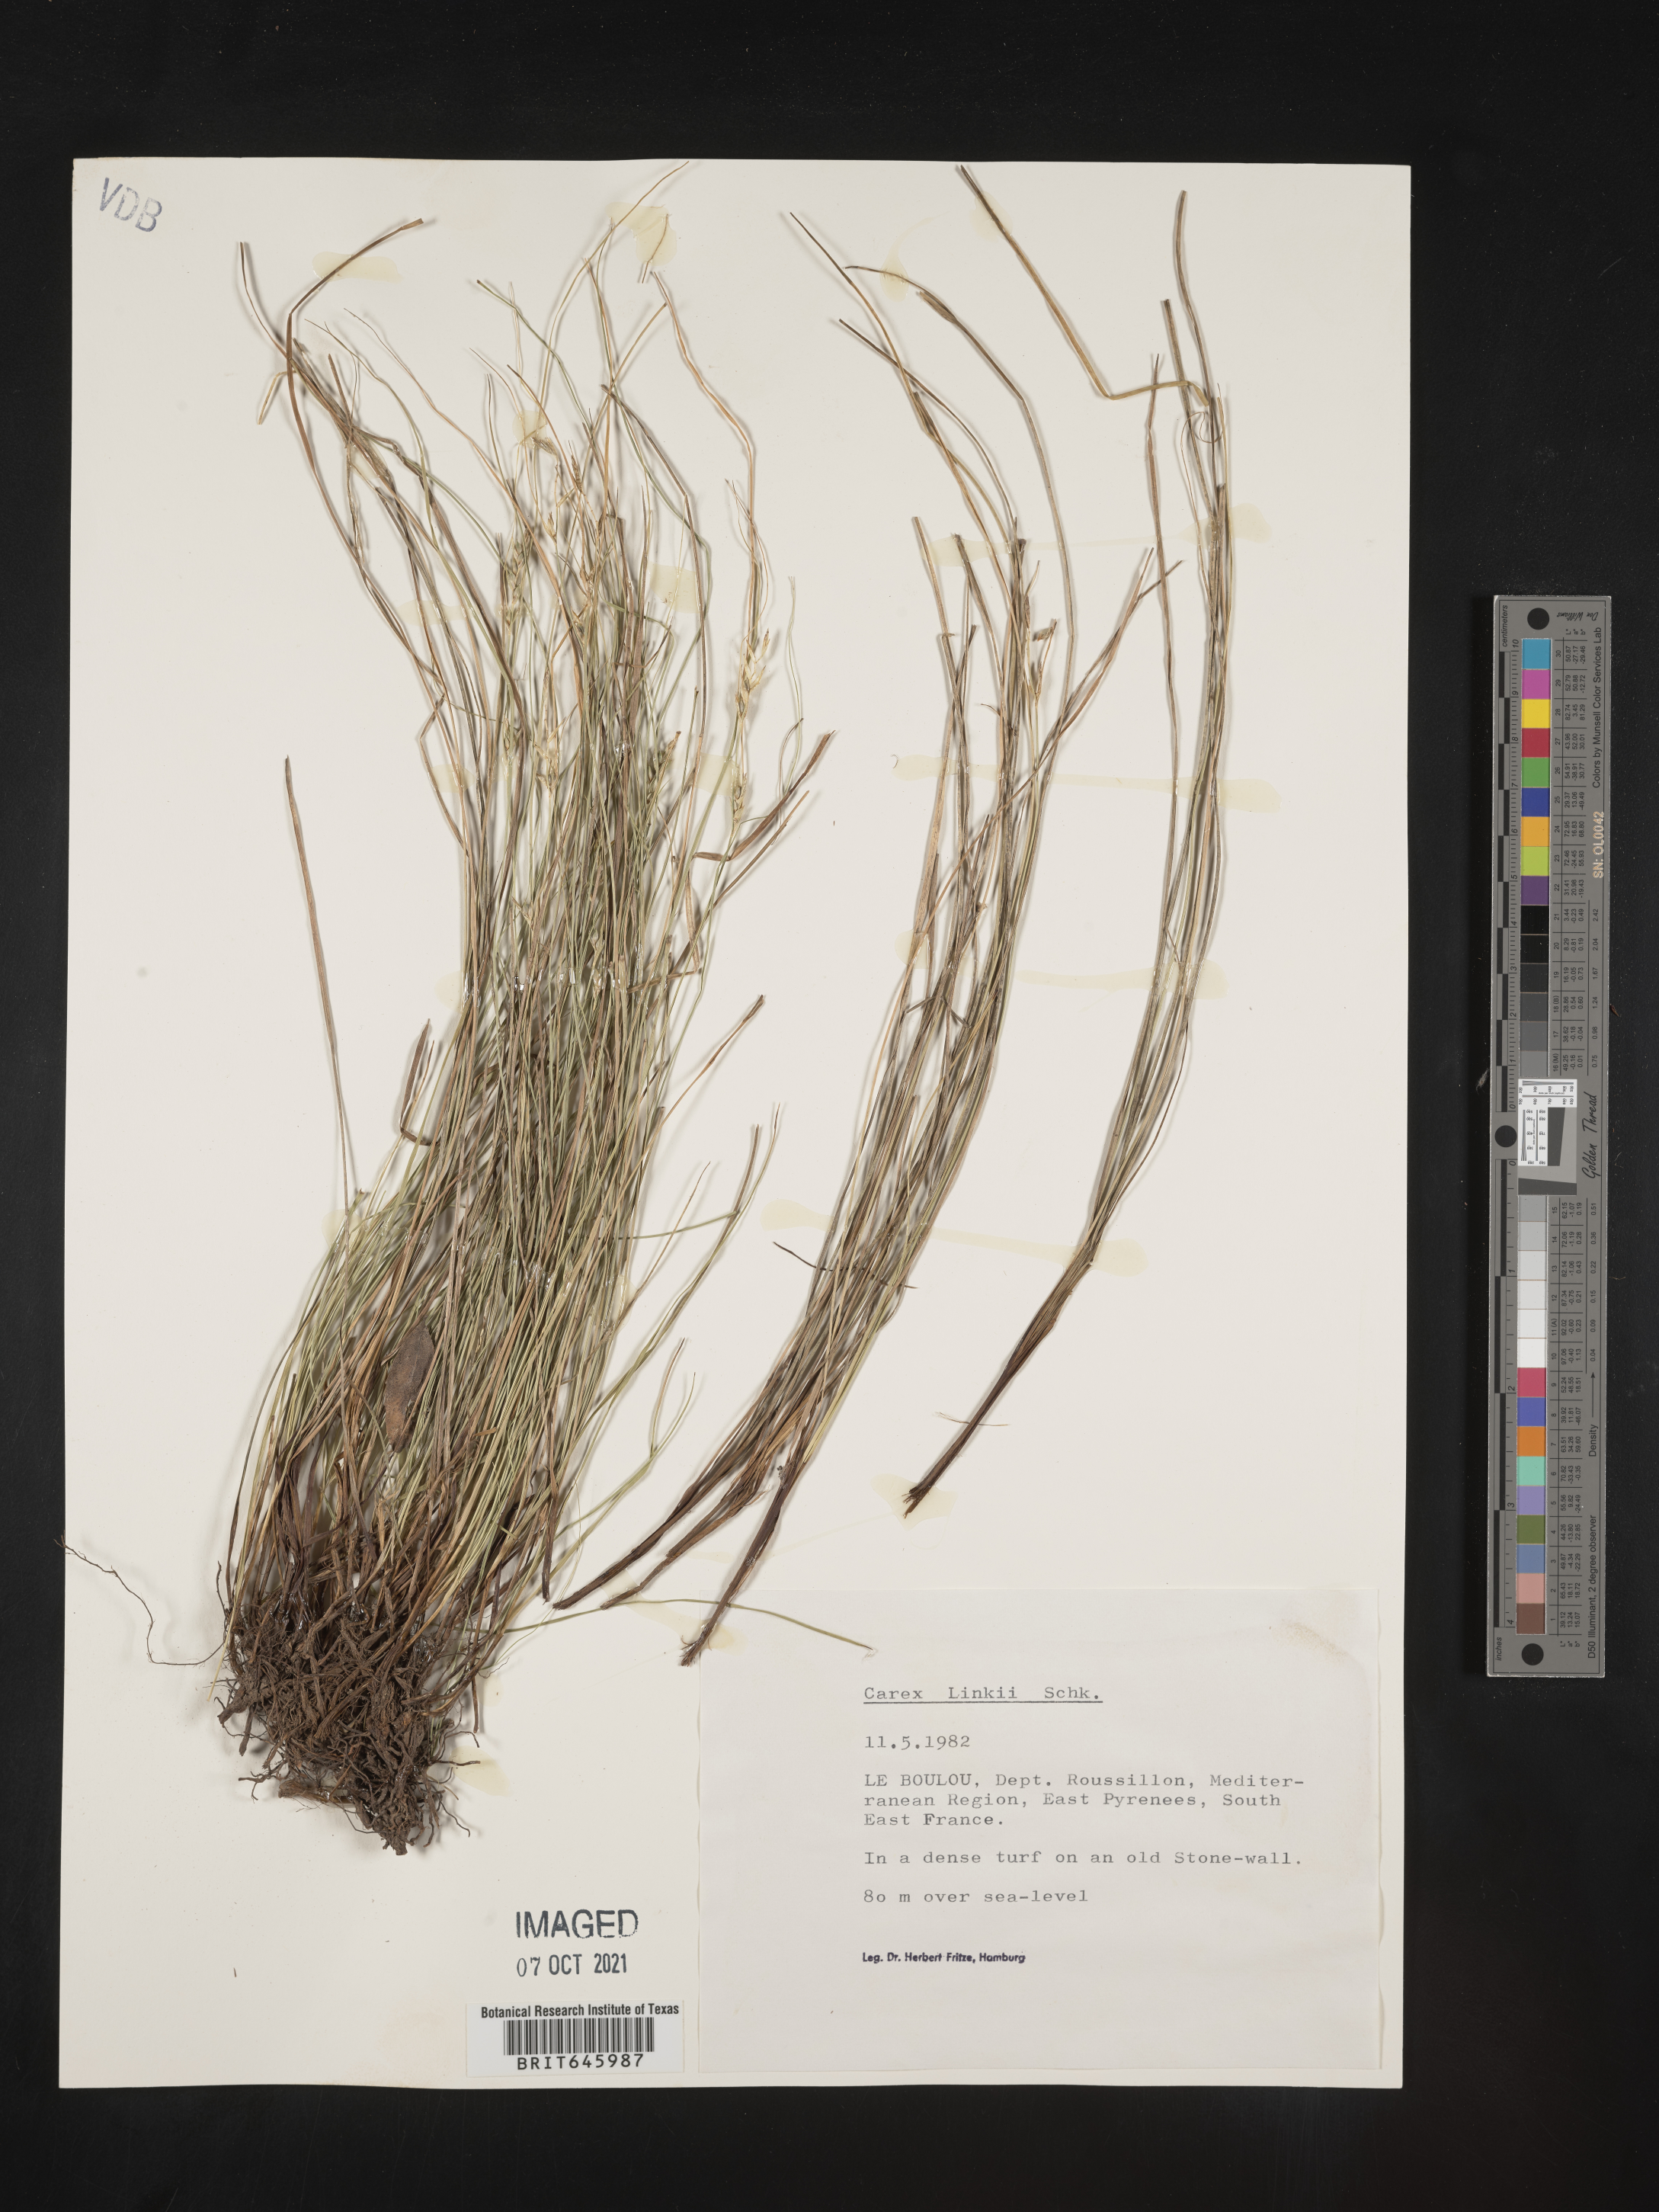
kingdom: Plantae
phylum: Tracheophyta
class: Liliopsida
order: Poales
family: Cyperaceae
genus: Carex
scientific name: Carex distachya
